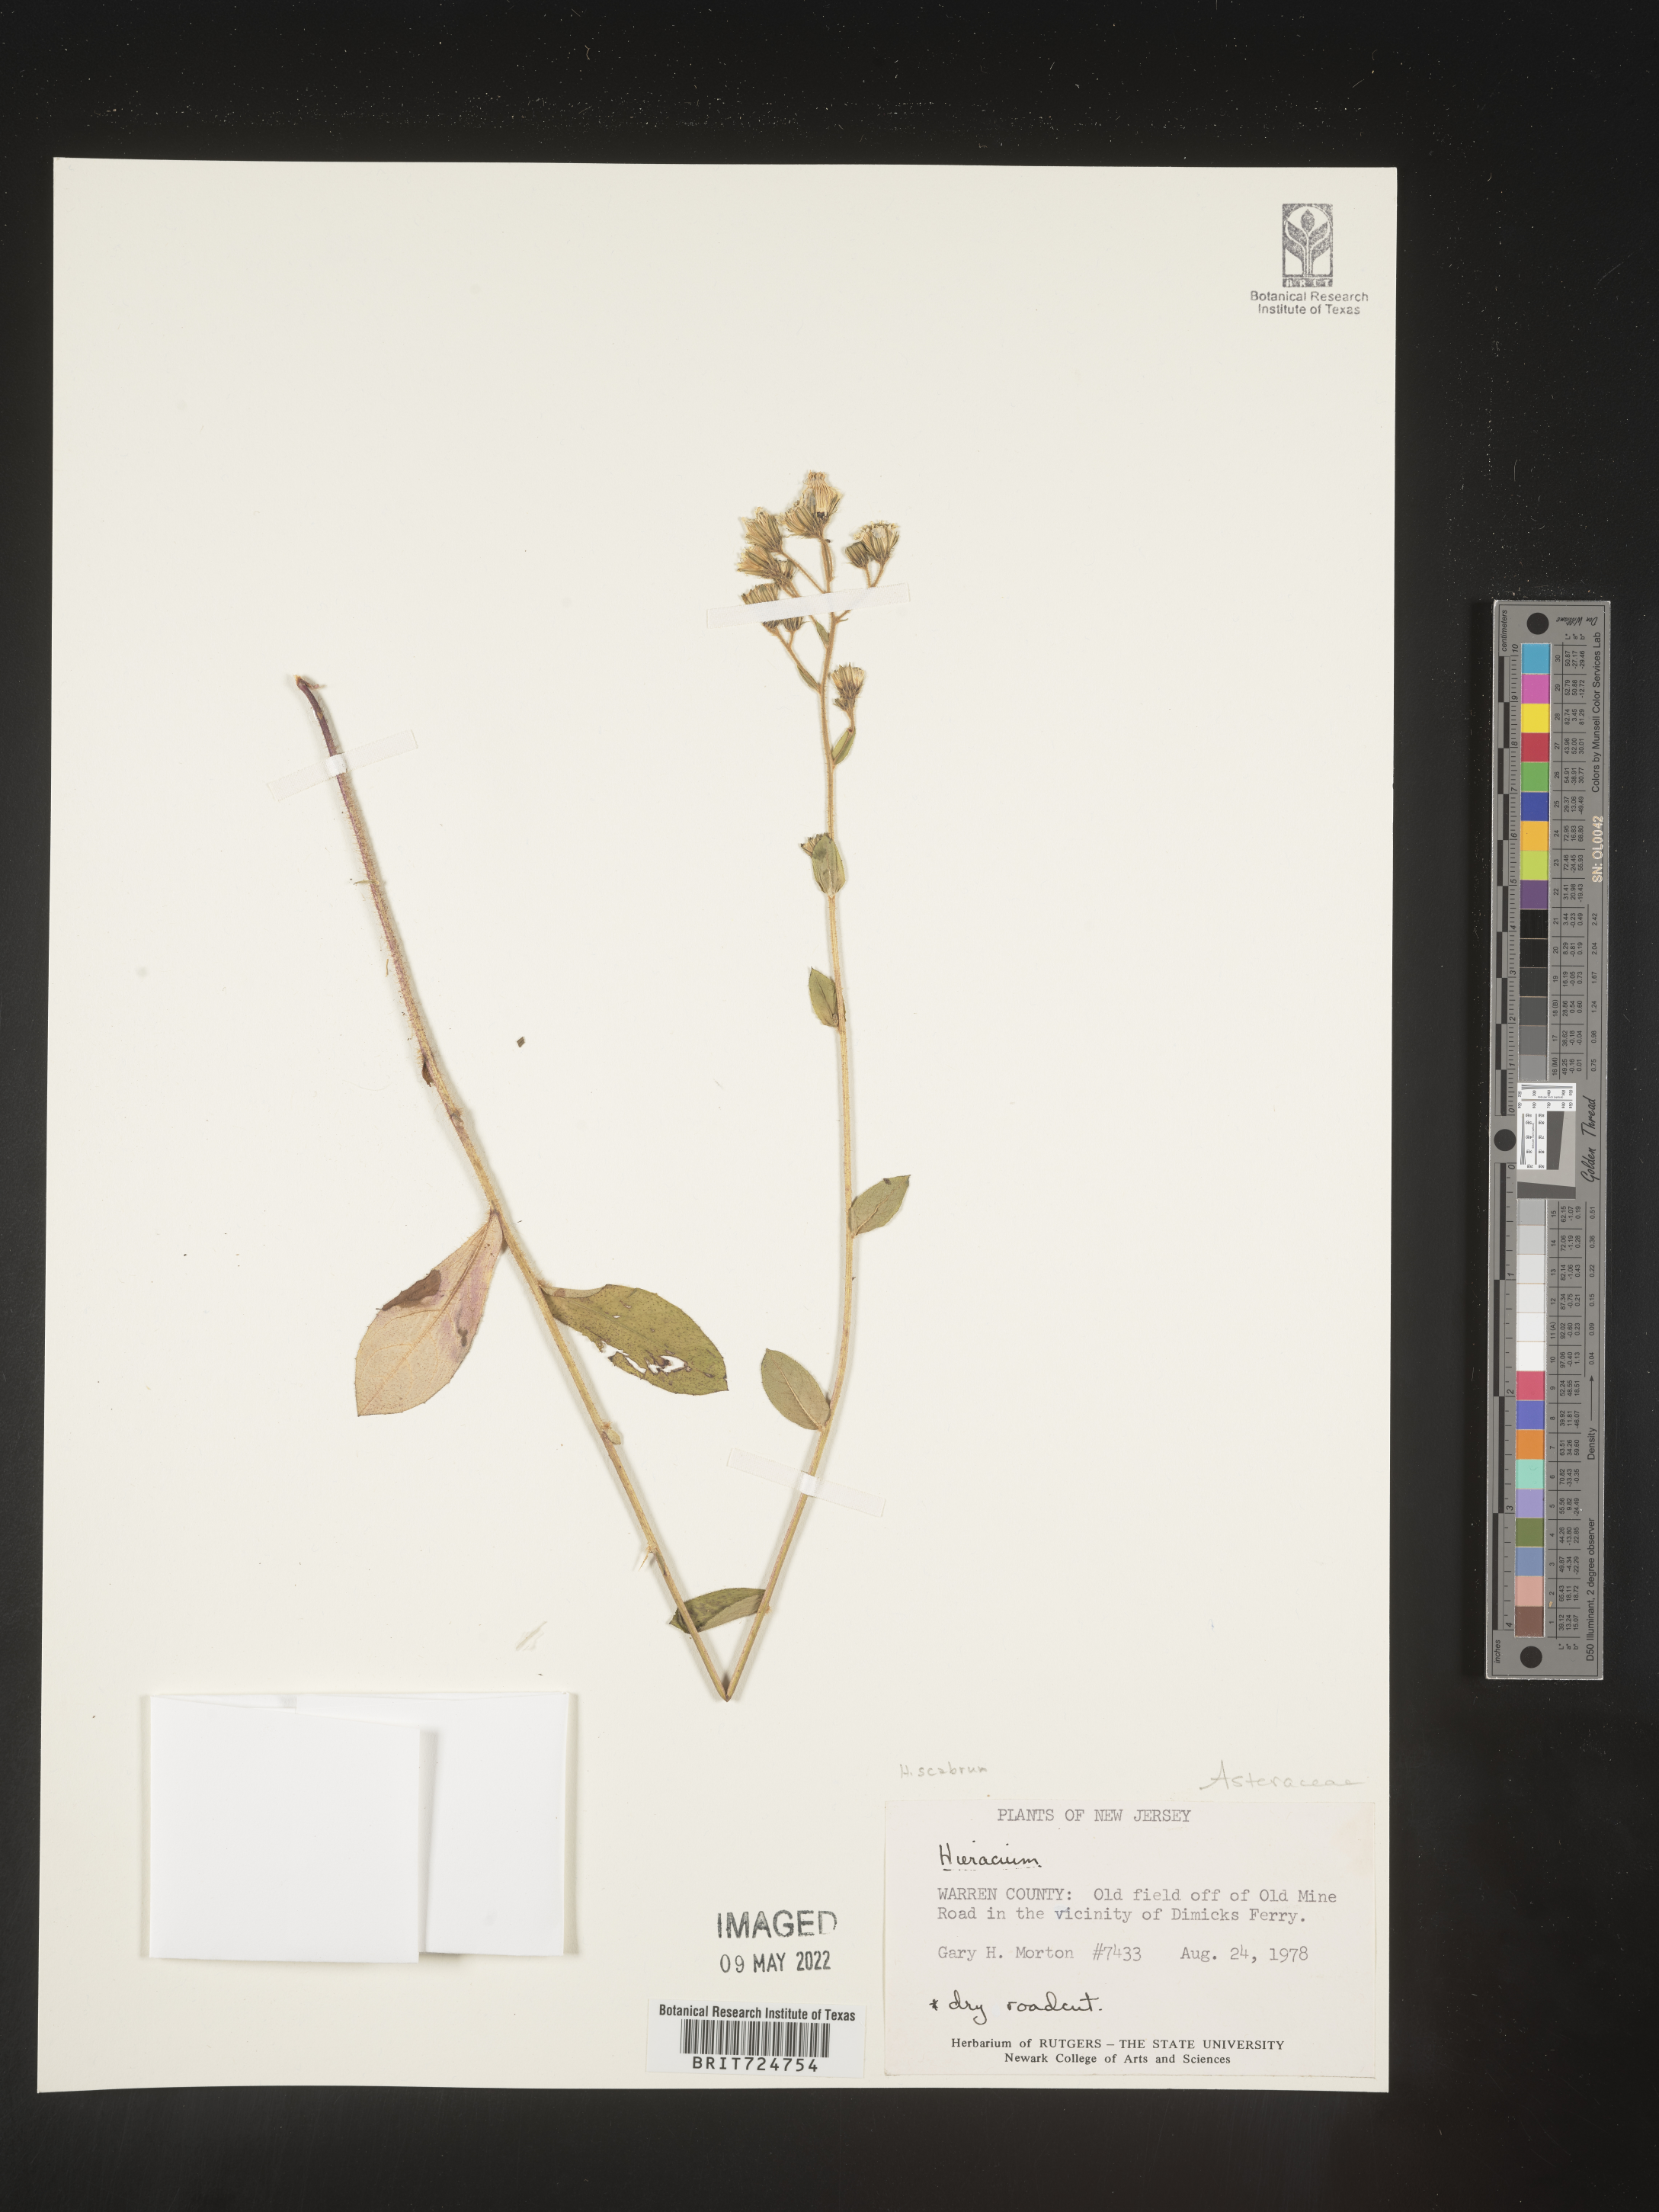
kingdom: Plantae
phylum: Tracheophyta
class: Magnoliopsida
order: Asterales
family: Asteraceae
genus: Hieracium
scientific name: Hieracium scabrum
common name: Rough hawkweed
